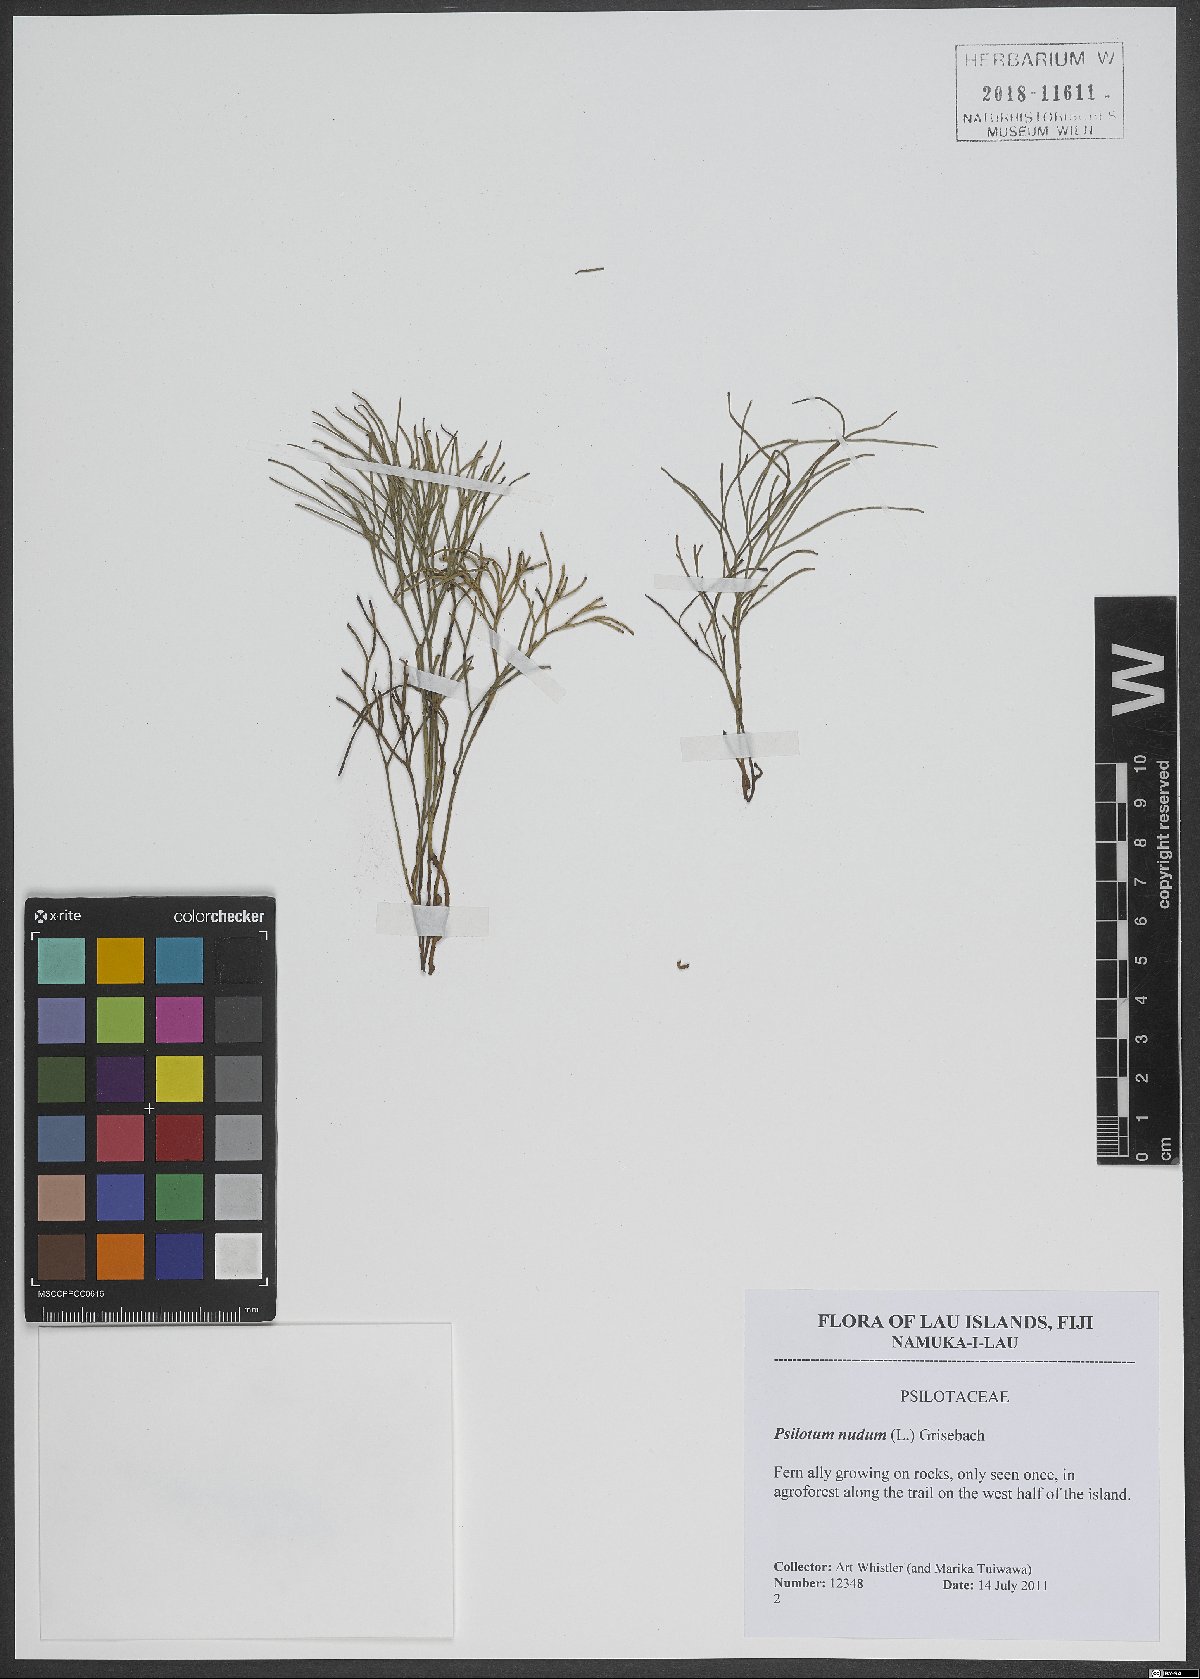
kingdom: Plantae
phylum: Tracheophyta
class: Polypodiopsida
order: Psilotales
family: Psilotaceae
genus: Psilotum
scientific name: Psilotum nudum
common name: Skeleton fork fern
